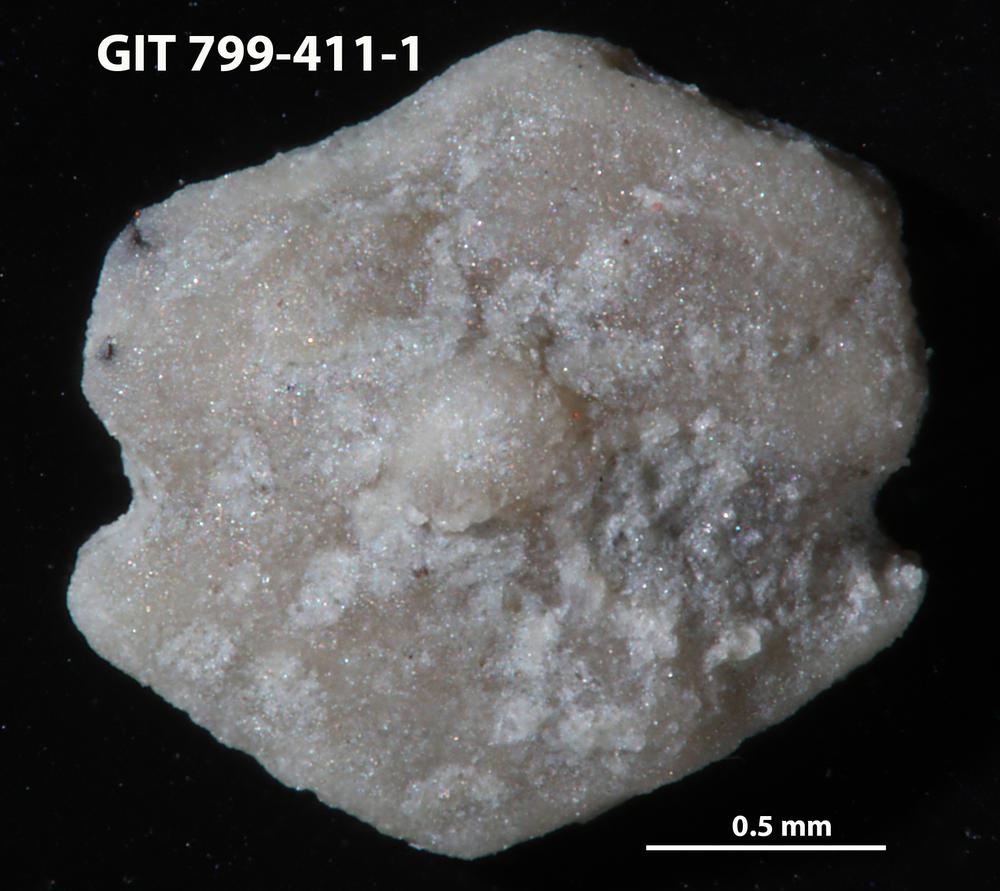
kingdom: Animalia
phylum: Echinodermata
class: Echinoidea
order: Bothriocidaroida
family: Bothriocidaridae
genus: Neobothriocidaris
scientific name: Neobothriocidaris
